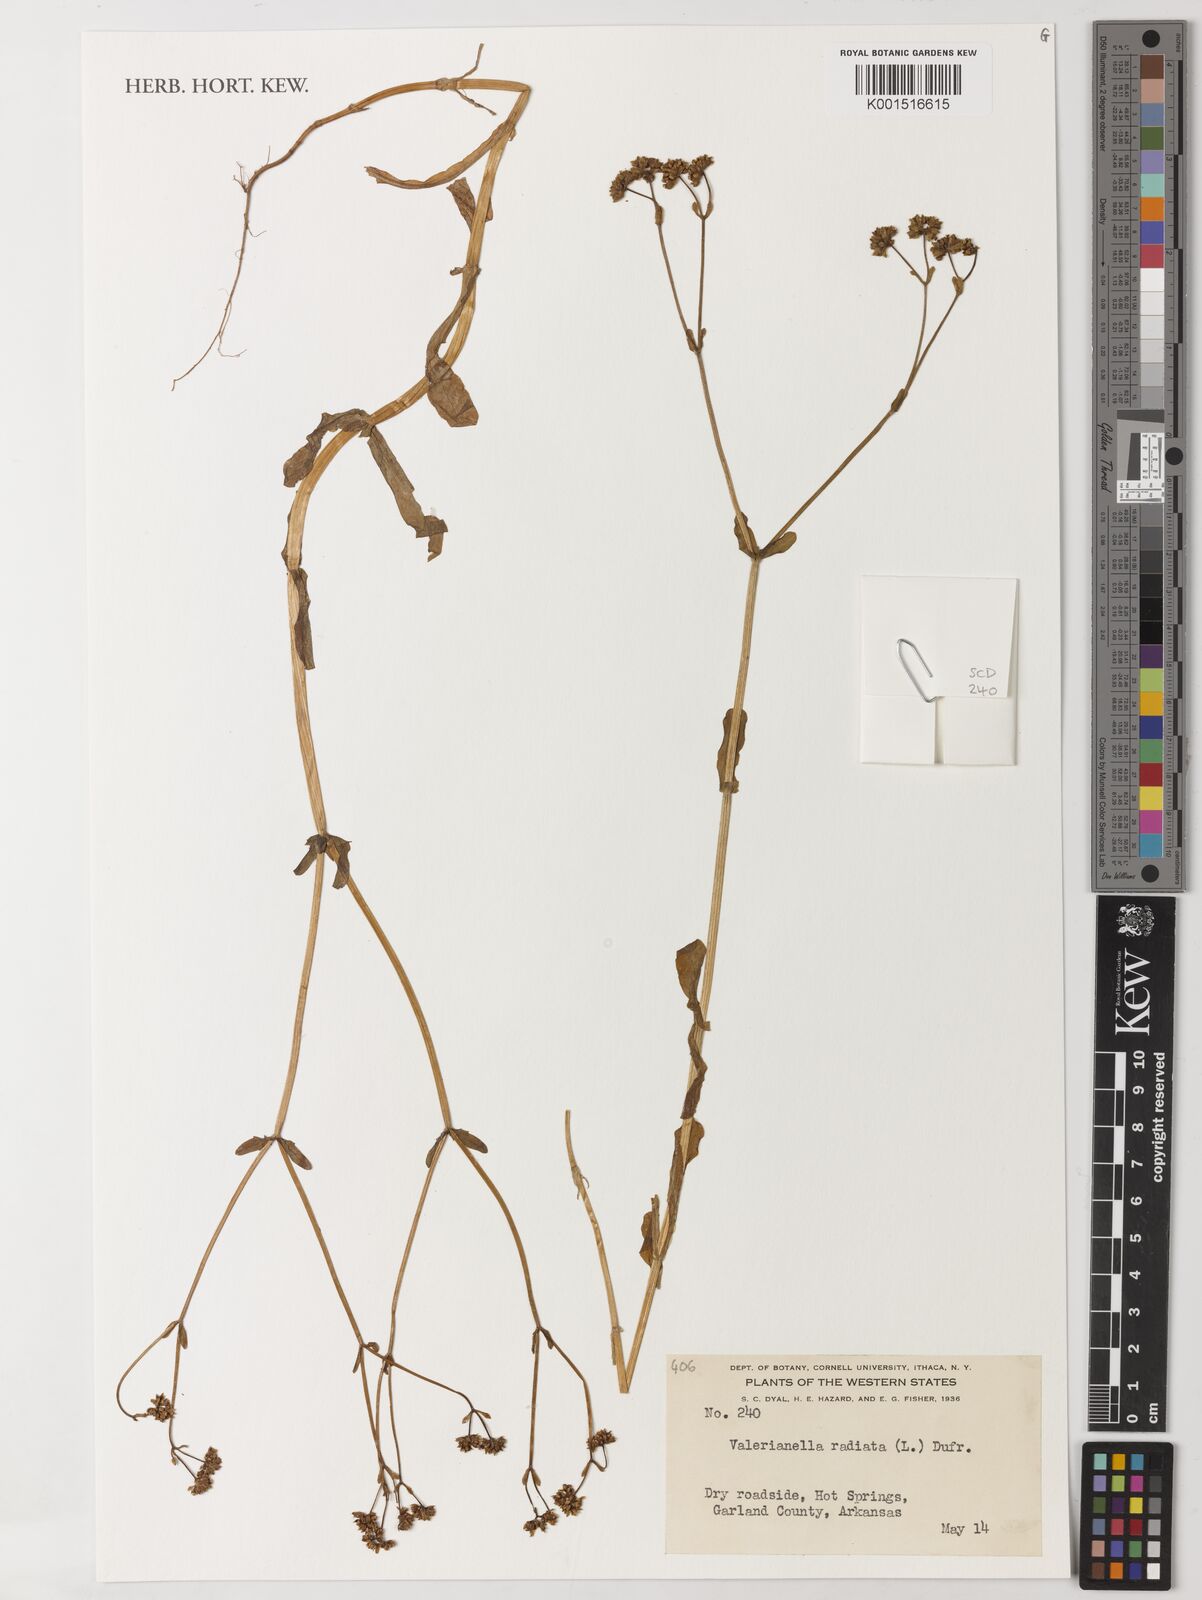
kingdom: Plantae
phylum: Tracheophyta
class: Magnoliopsida
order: Dipsacales
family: Caprifoliaceae
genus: Valerianella
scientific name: Valerianella radiata
